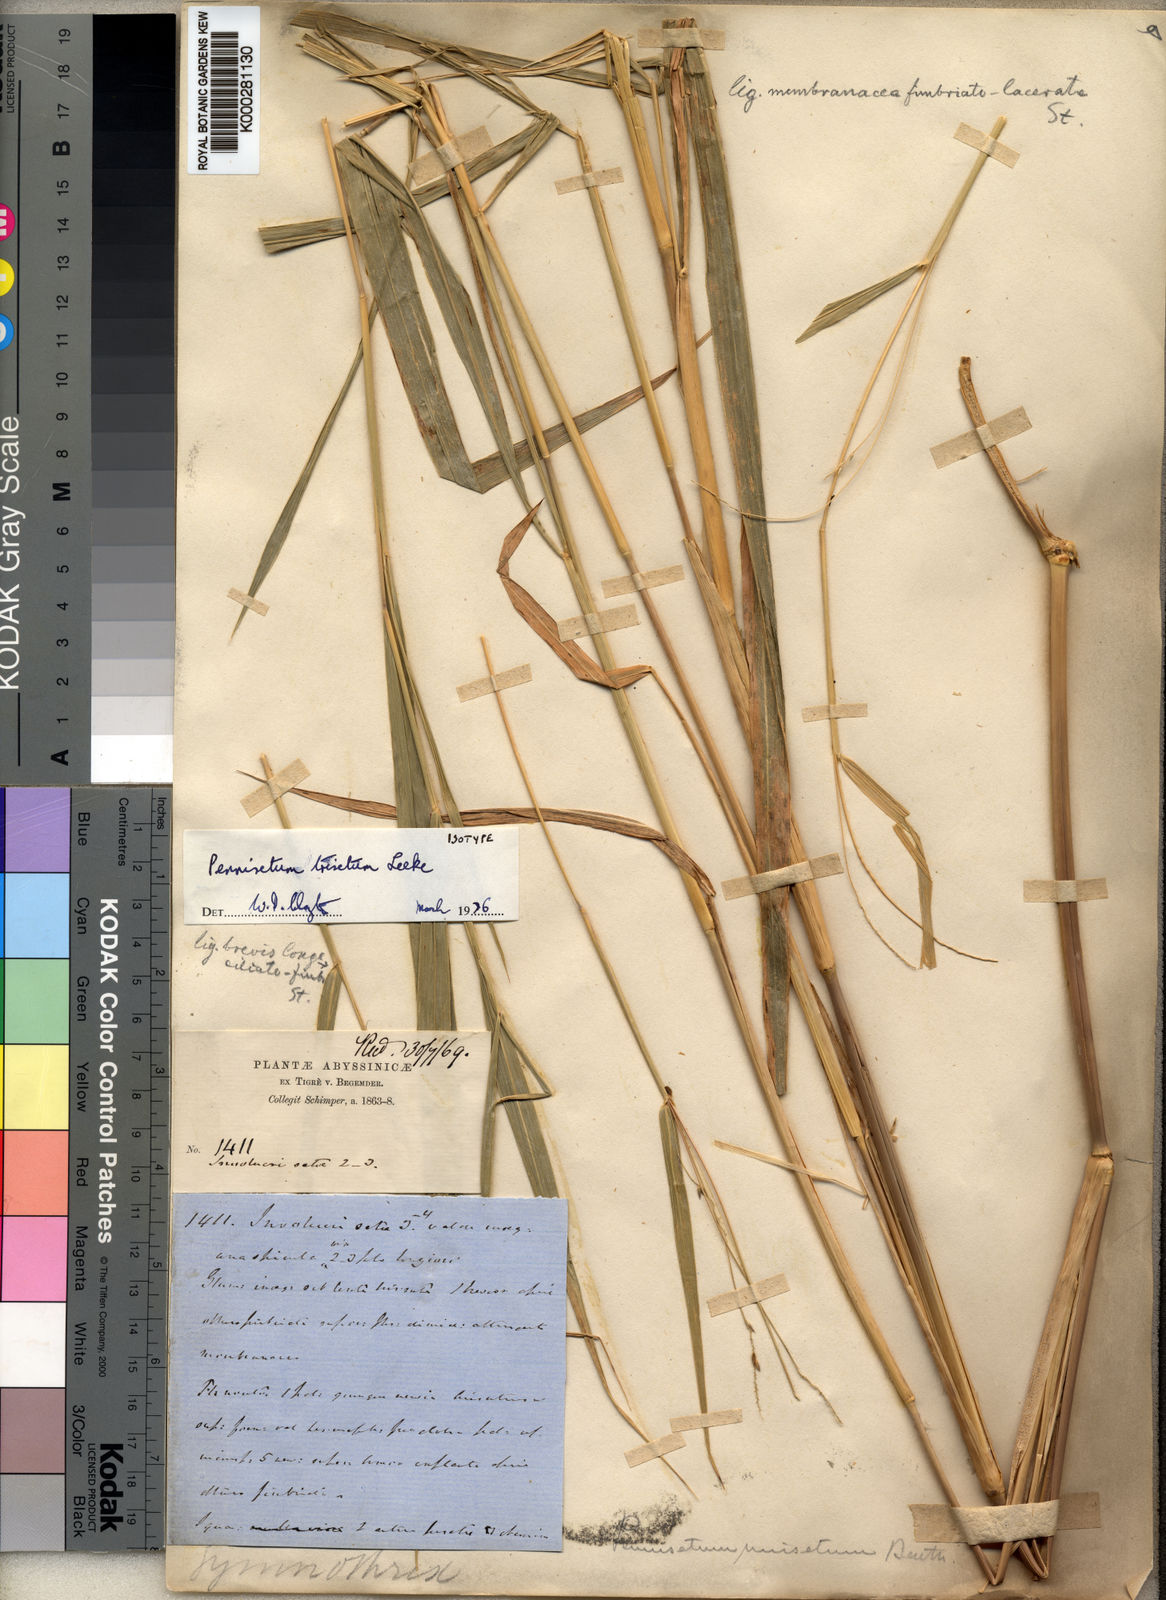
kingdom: Plantae
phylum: Tracheophyta
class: Liliopsida
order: Poales
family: Poaceae
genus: Cenchrus
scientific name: Cenchrus trisetus
